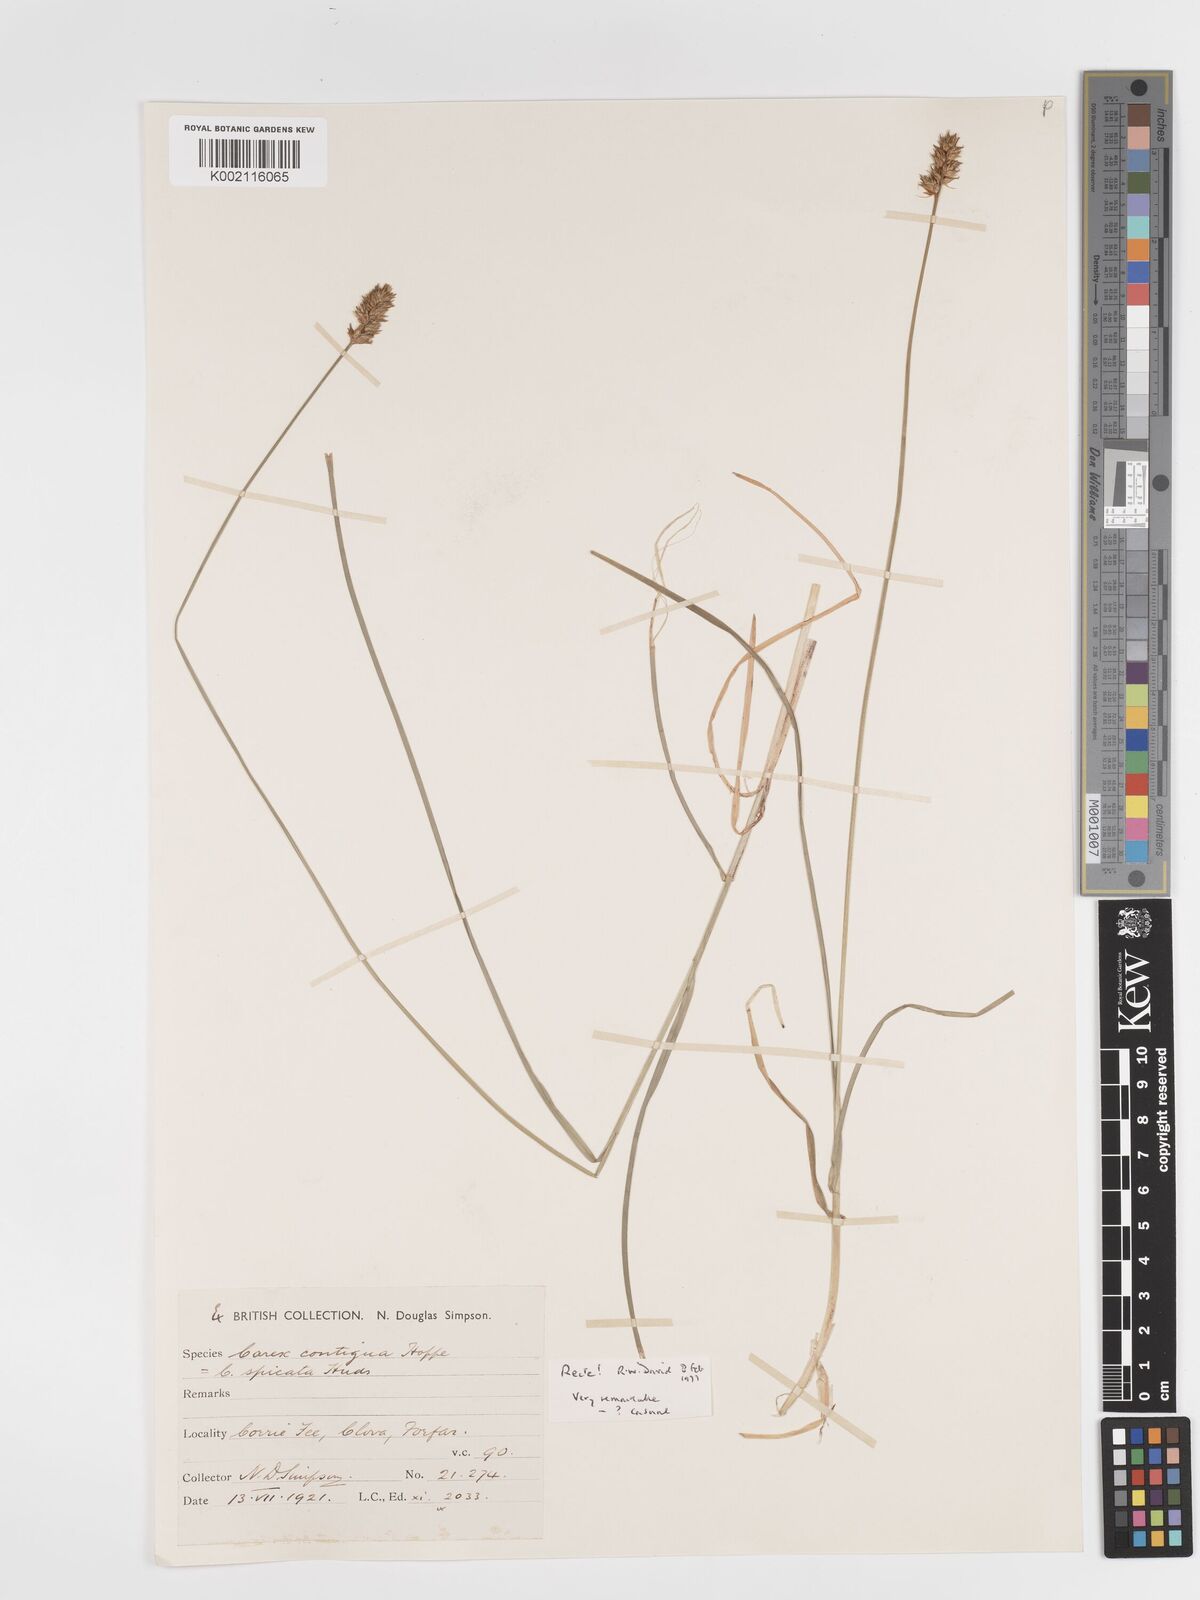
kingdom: Plantae
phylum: Tracheophyta
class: Liliopsida
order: Poales
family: Cyperaceae
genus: Carex
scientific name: Carex spicata
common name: Spiked sedge
